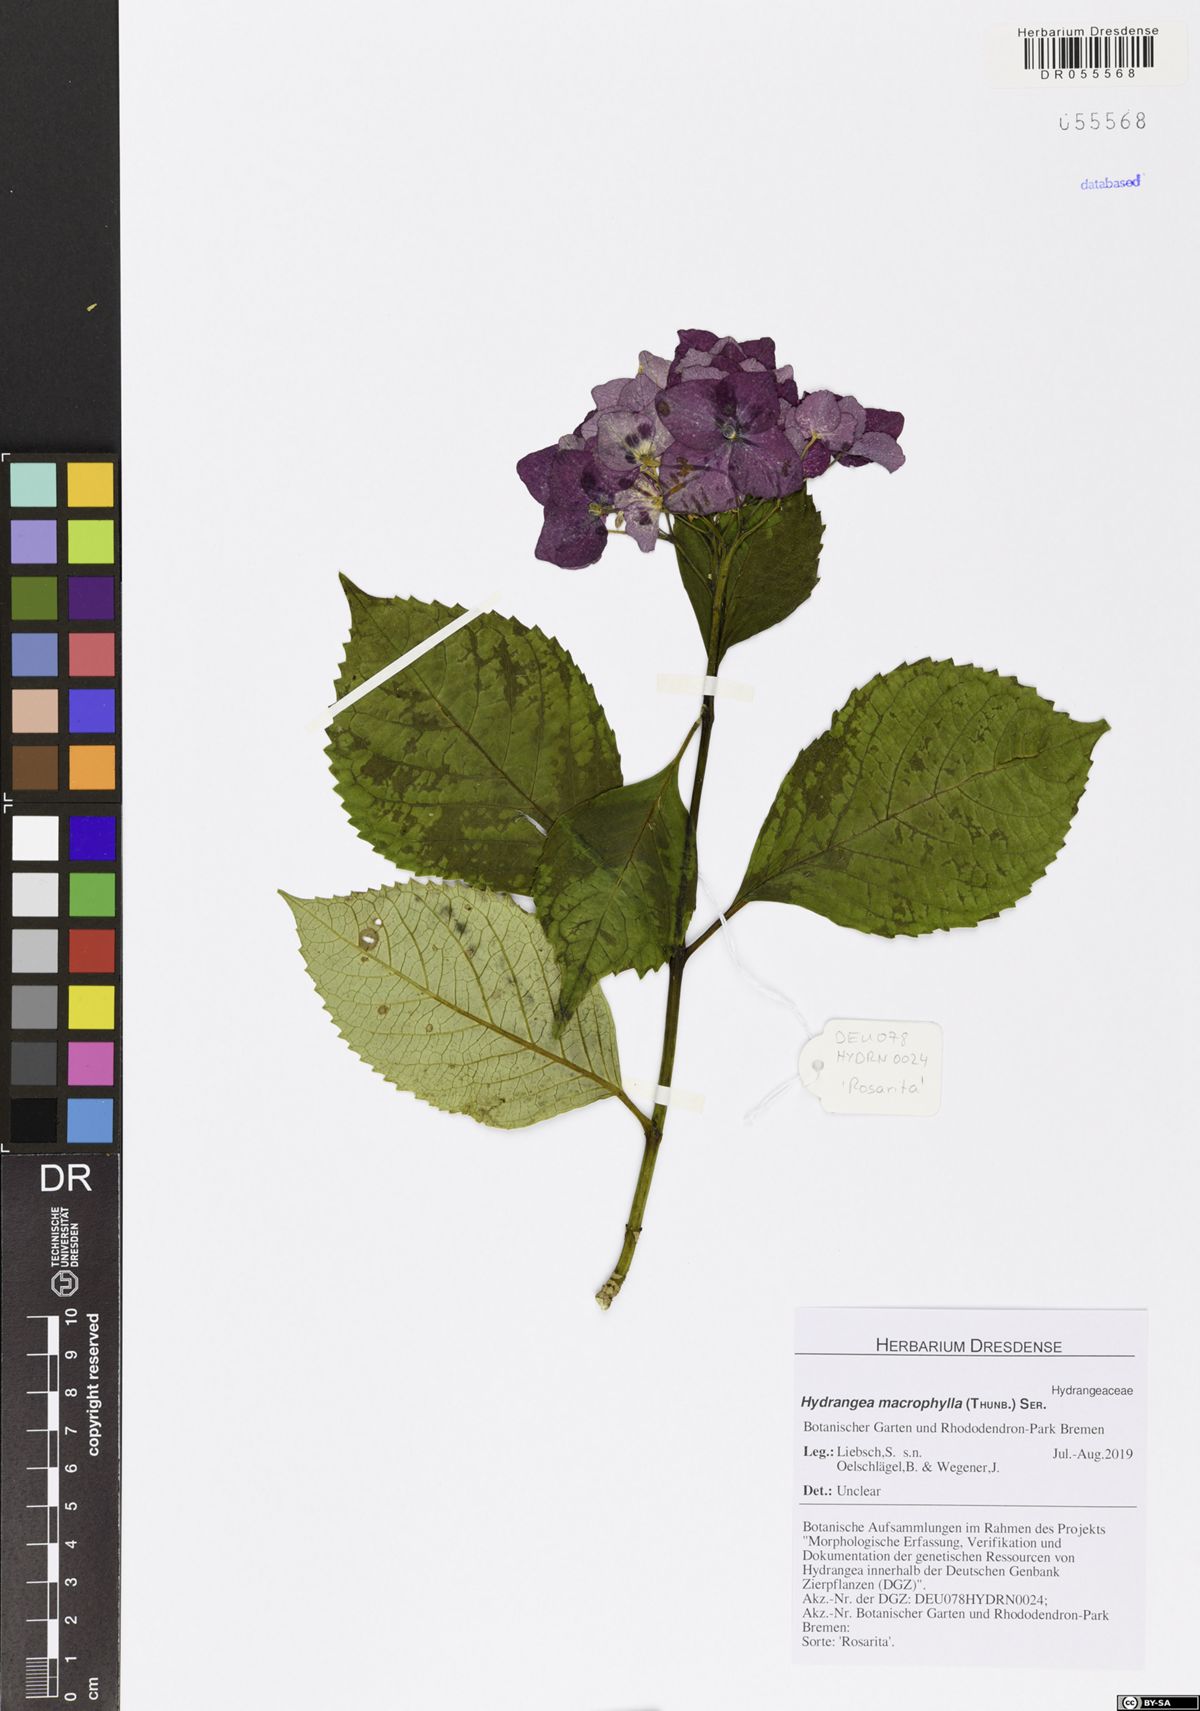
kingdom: Plantae
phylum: Tracheophyta
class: Magnoliopsida
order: Cornales
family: Hydrangeaceae
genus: Hydrangea
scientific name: Hydrangea macrophylla
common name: Hydrangea
